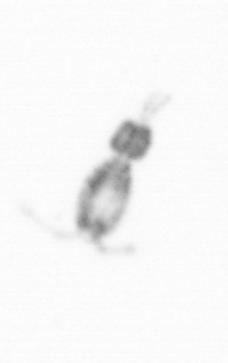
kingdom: Animalia
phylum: Arthropoda
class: Copepoda
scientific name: Copepoda
